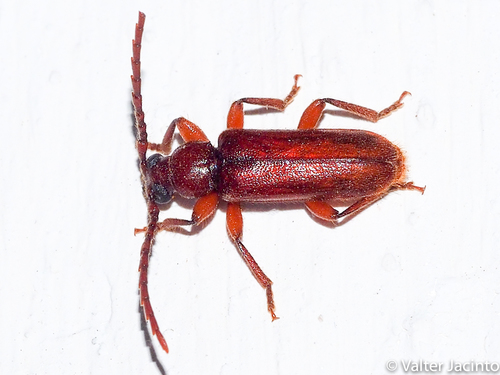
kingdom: Animalia
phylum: Arthropoda
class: Insecta
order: Coleoptera
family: Cerambycidae
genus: Alocerus
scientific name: Alocerus moesiacus
